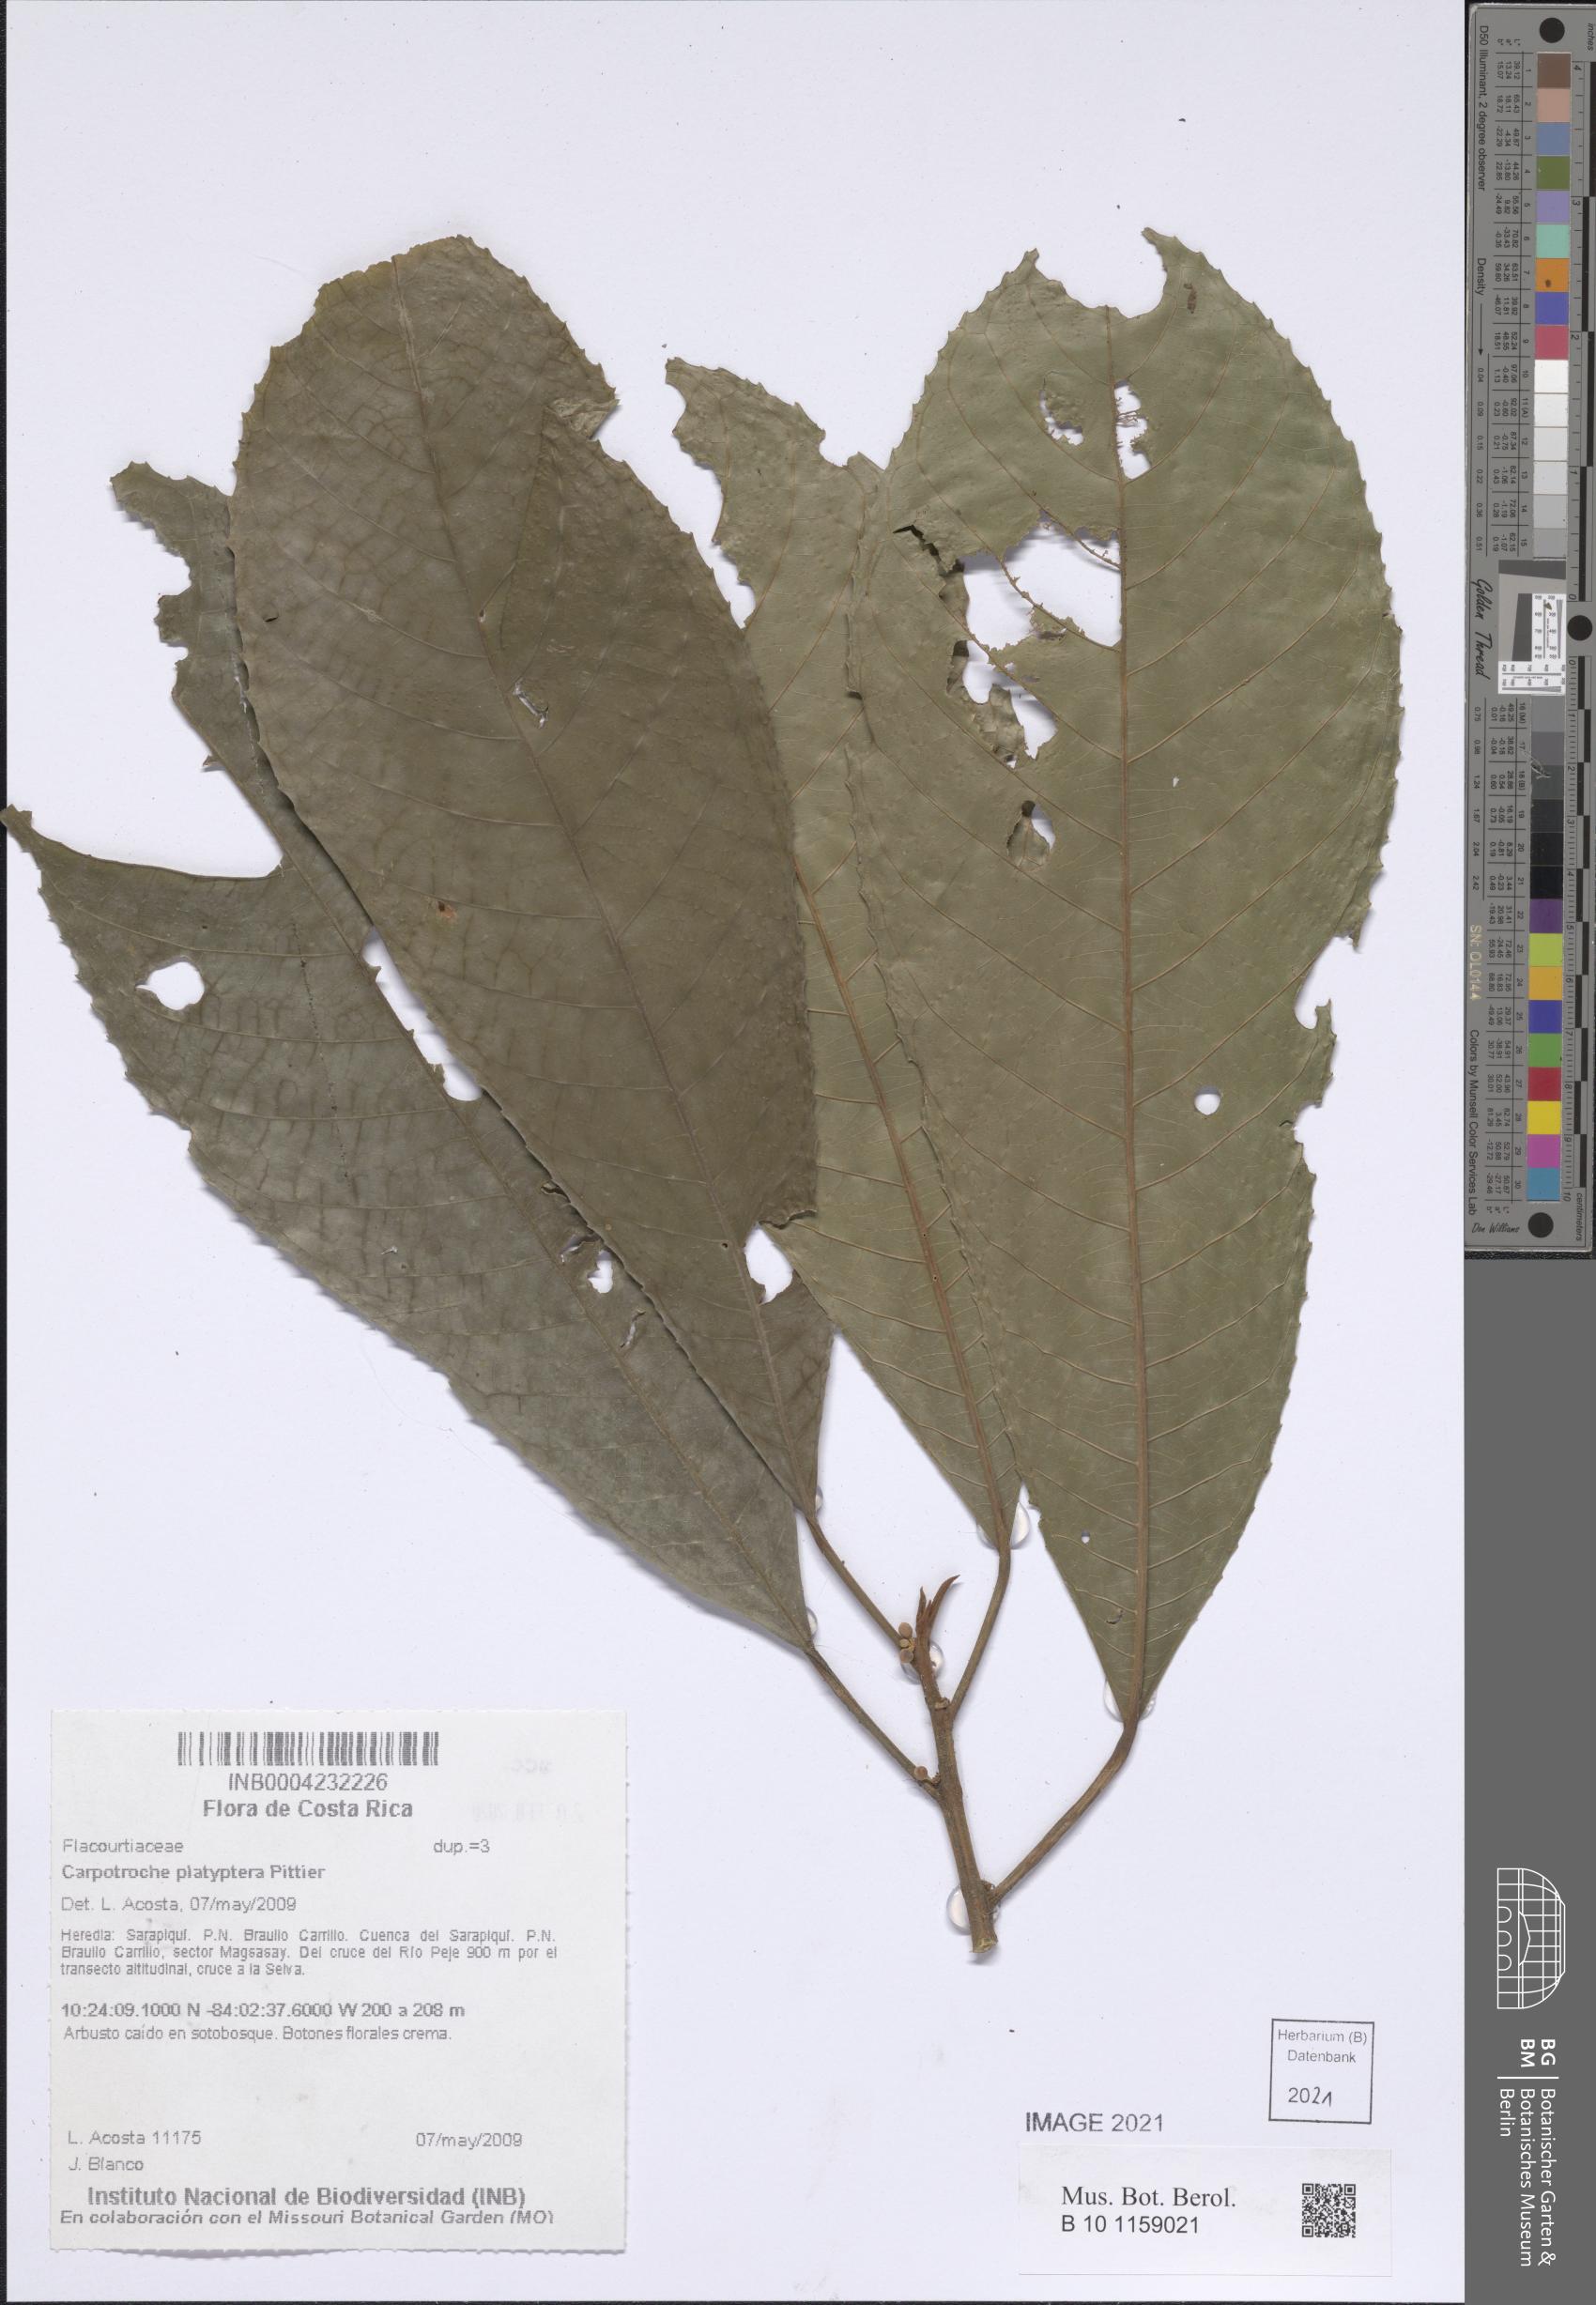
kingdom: Plantae
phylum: Tracheophyta
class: Magnoliopsida
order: Malpighiales
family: Achariaceae
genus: Carpotroche
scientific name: Carpotroche platyptera
